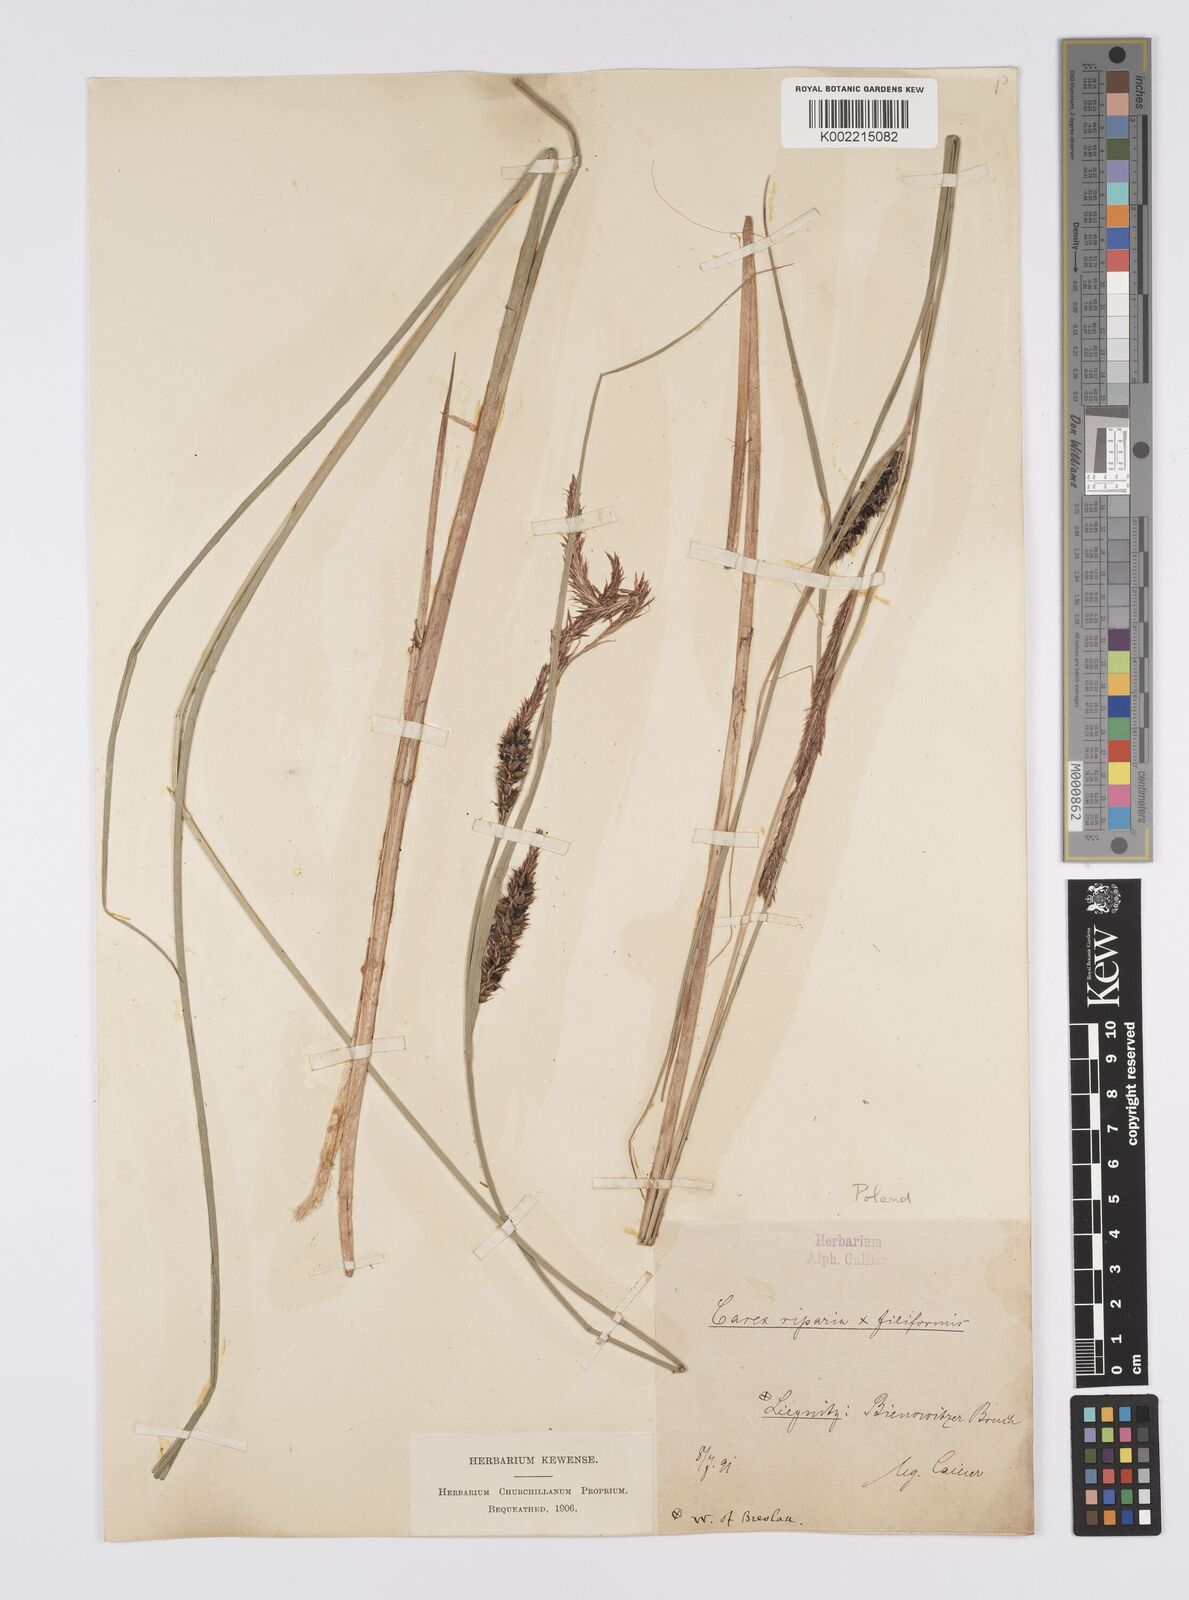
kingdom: Plantae
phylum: Tracheophyta
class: Liliopsida
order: Poales
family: Cyperaceae
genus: Carex
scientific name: Carex evoluta
